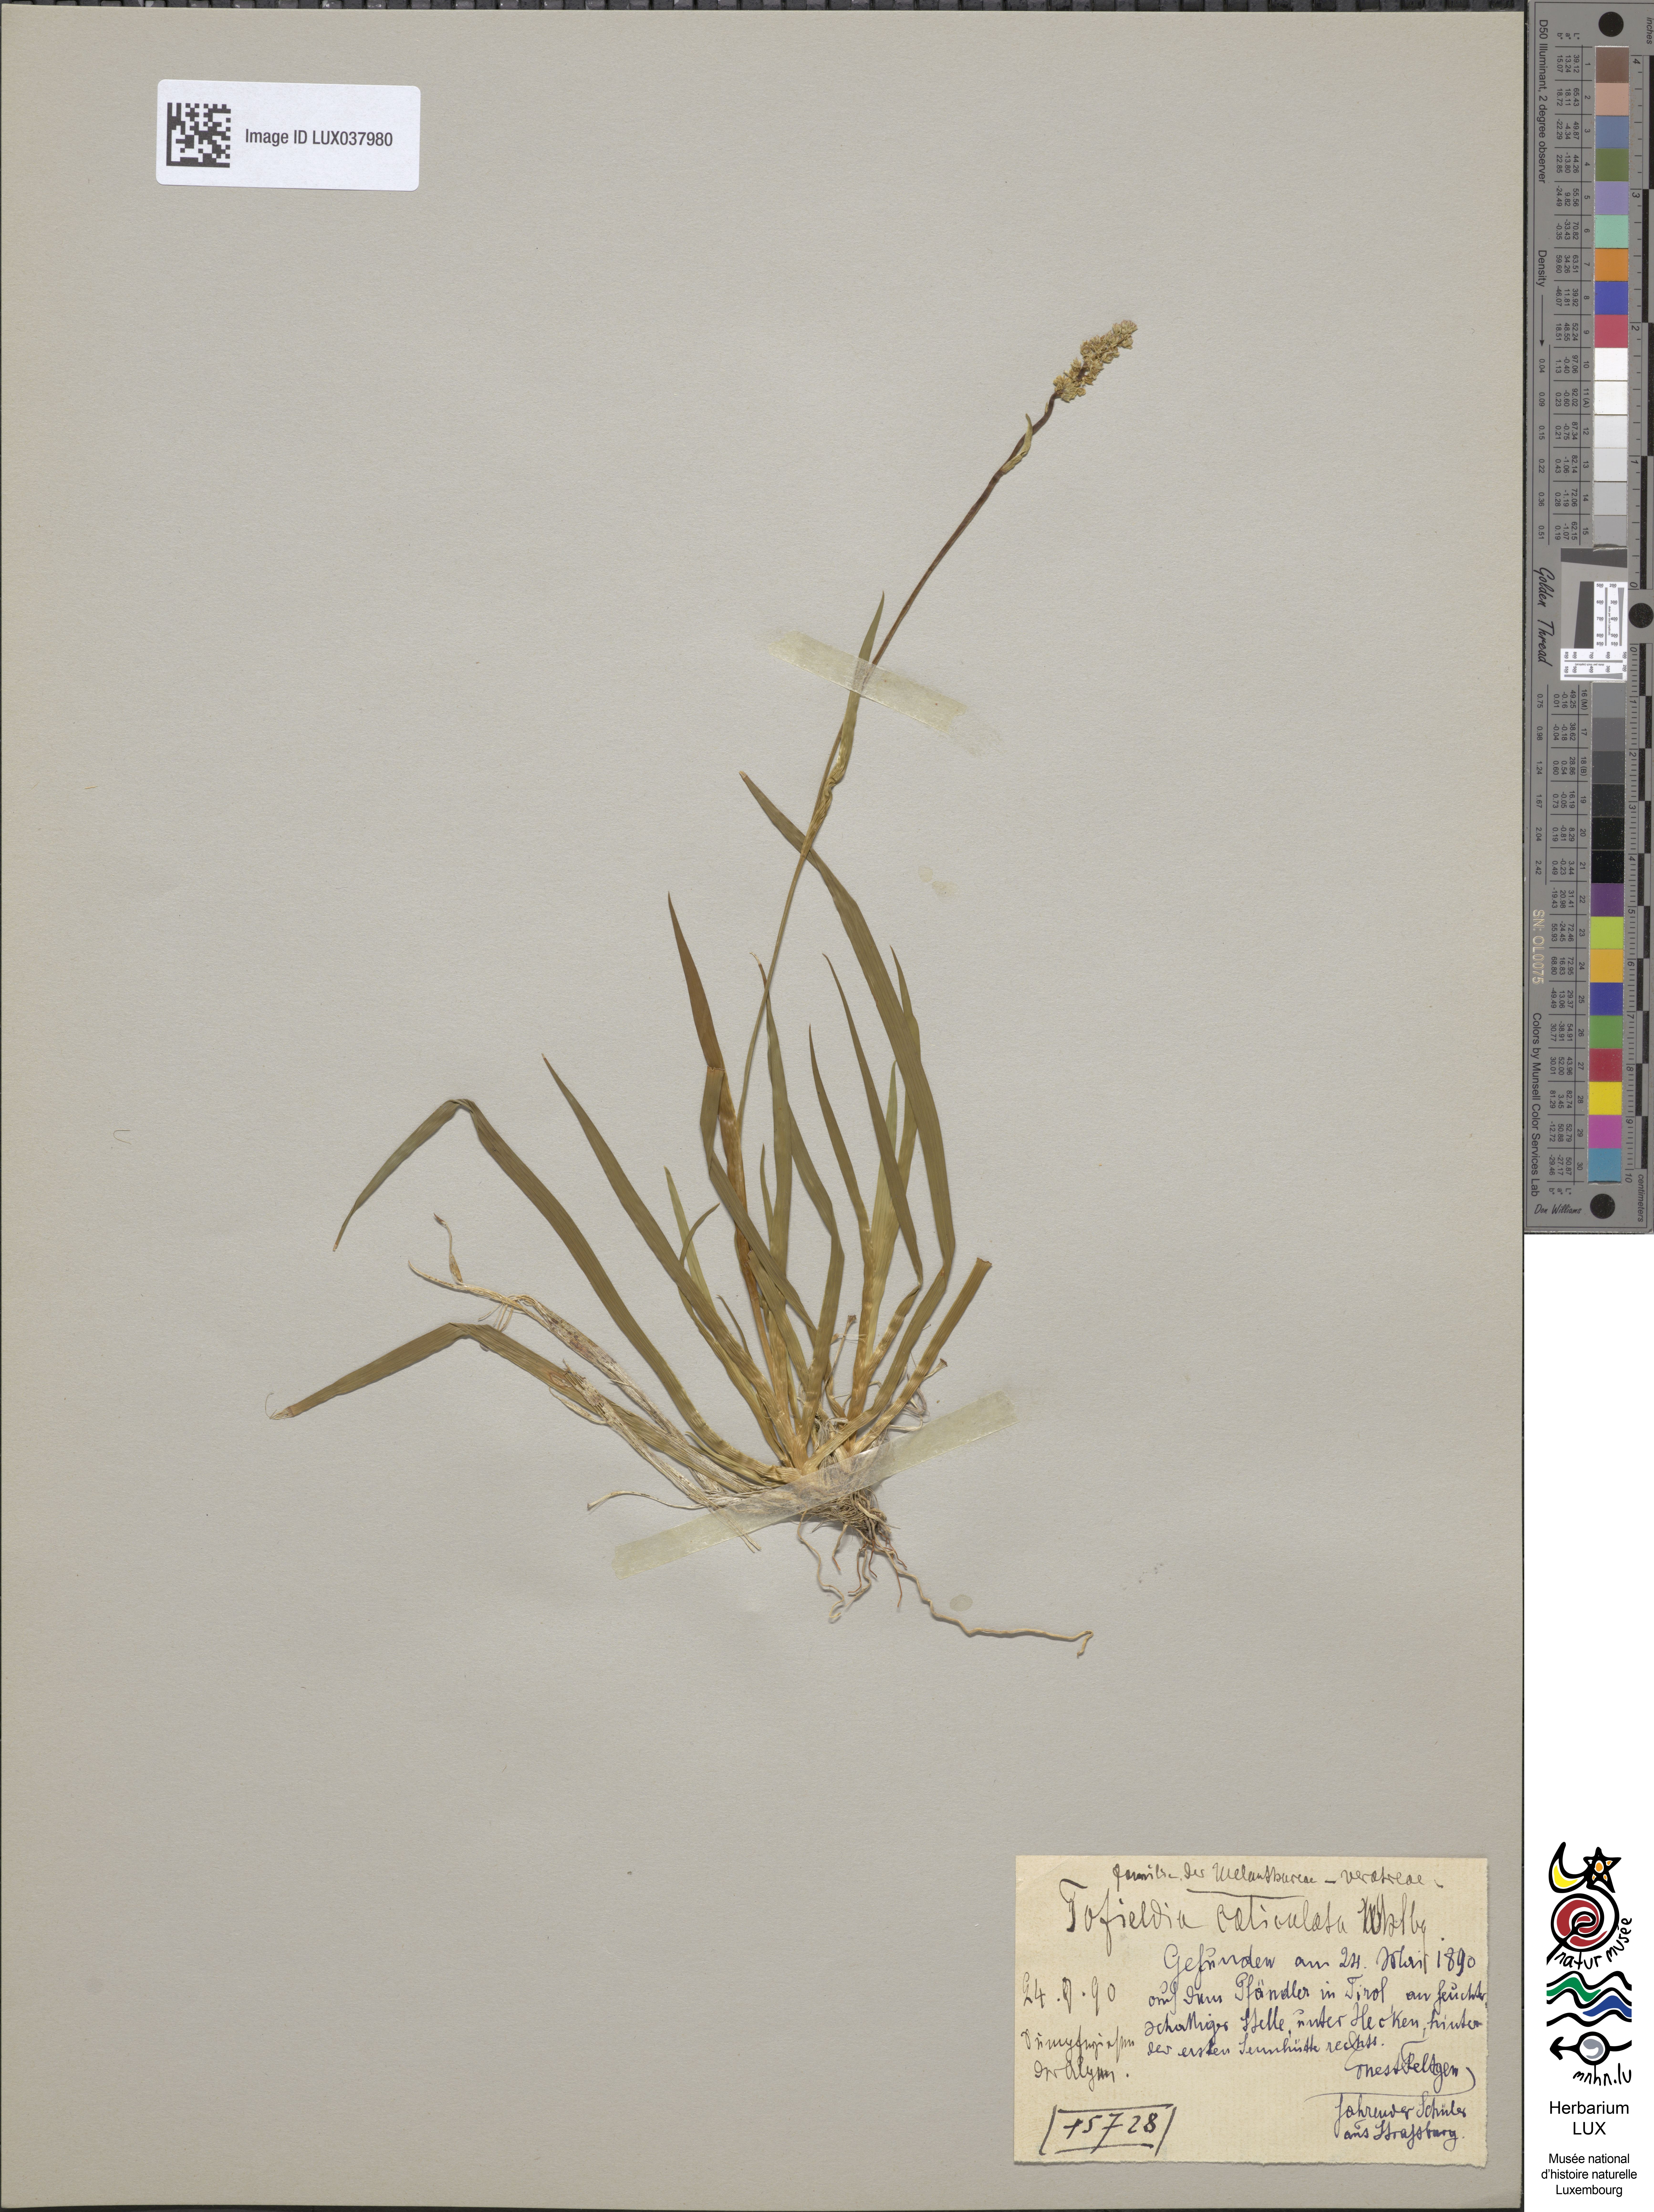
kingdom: Plantae
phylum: Tracheophyta
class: Liliopsida
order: Alismatales
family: Tofieldiaceae
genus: Tofieldia
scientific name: Tofieldia calyculata
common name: German-asphodel
